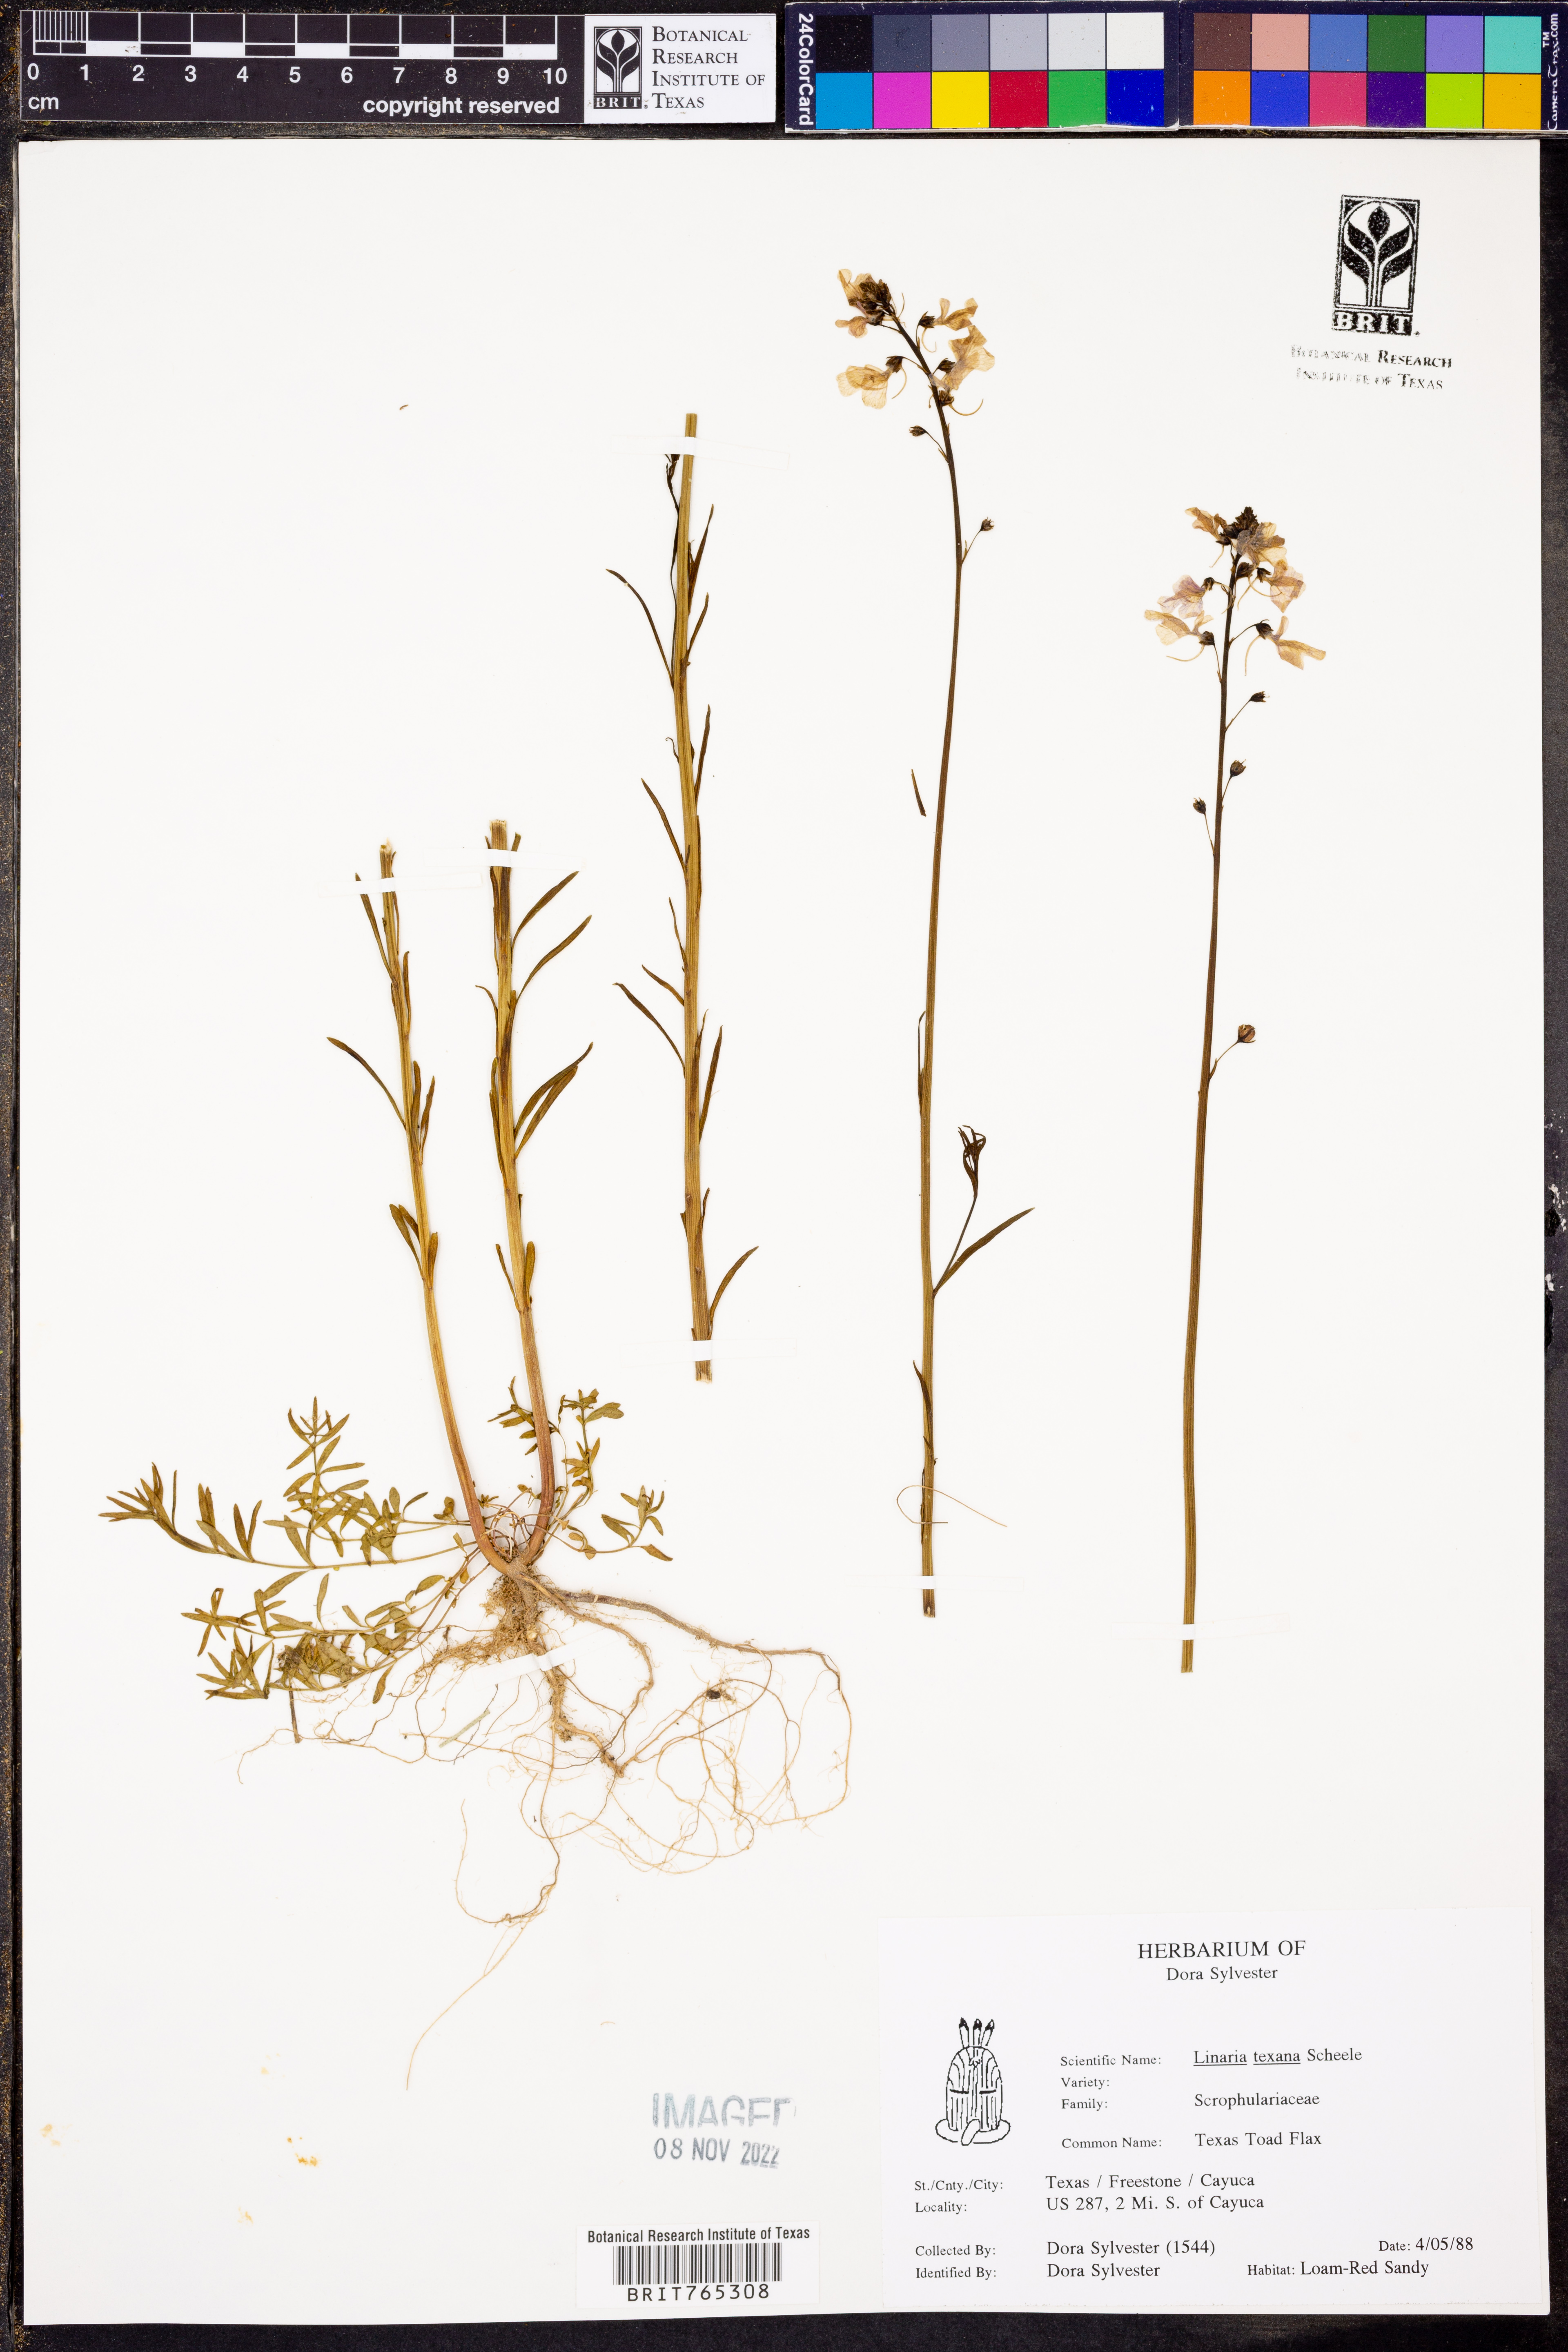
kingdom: Plantae
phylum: Tracheophyta
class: Magnoliopsida
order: Lamiales
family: Plantaginaceae
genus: Nuttallanthus
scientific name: Nuttallanthus texanus
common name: Texas toadflax
